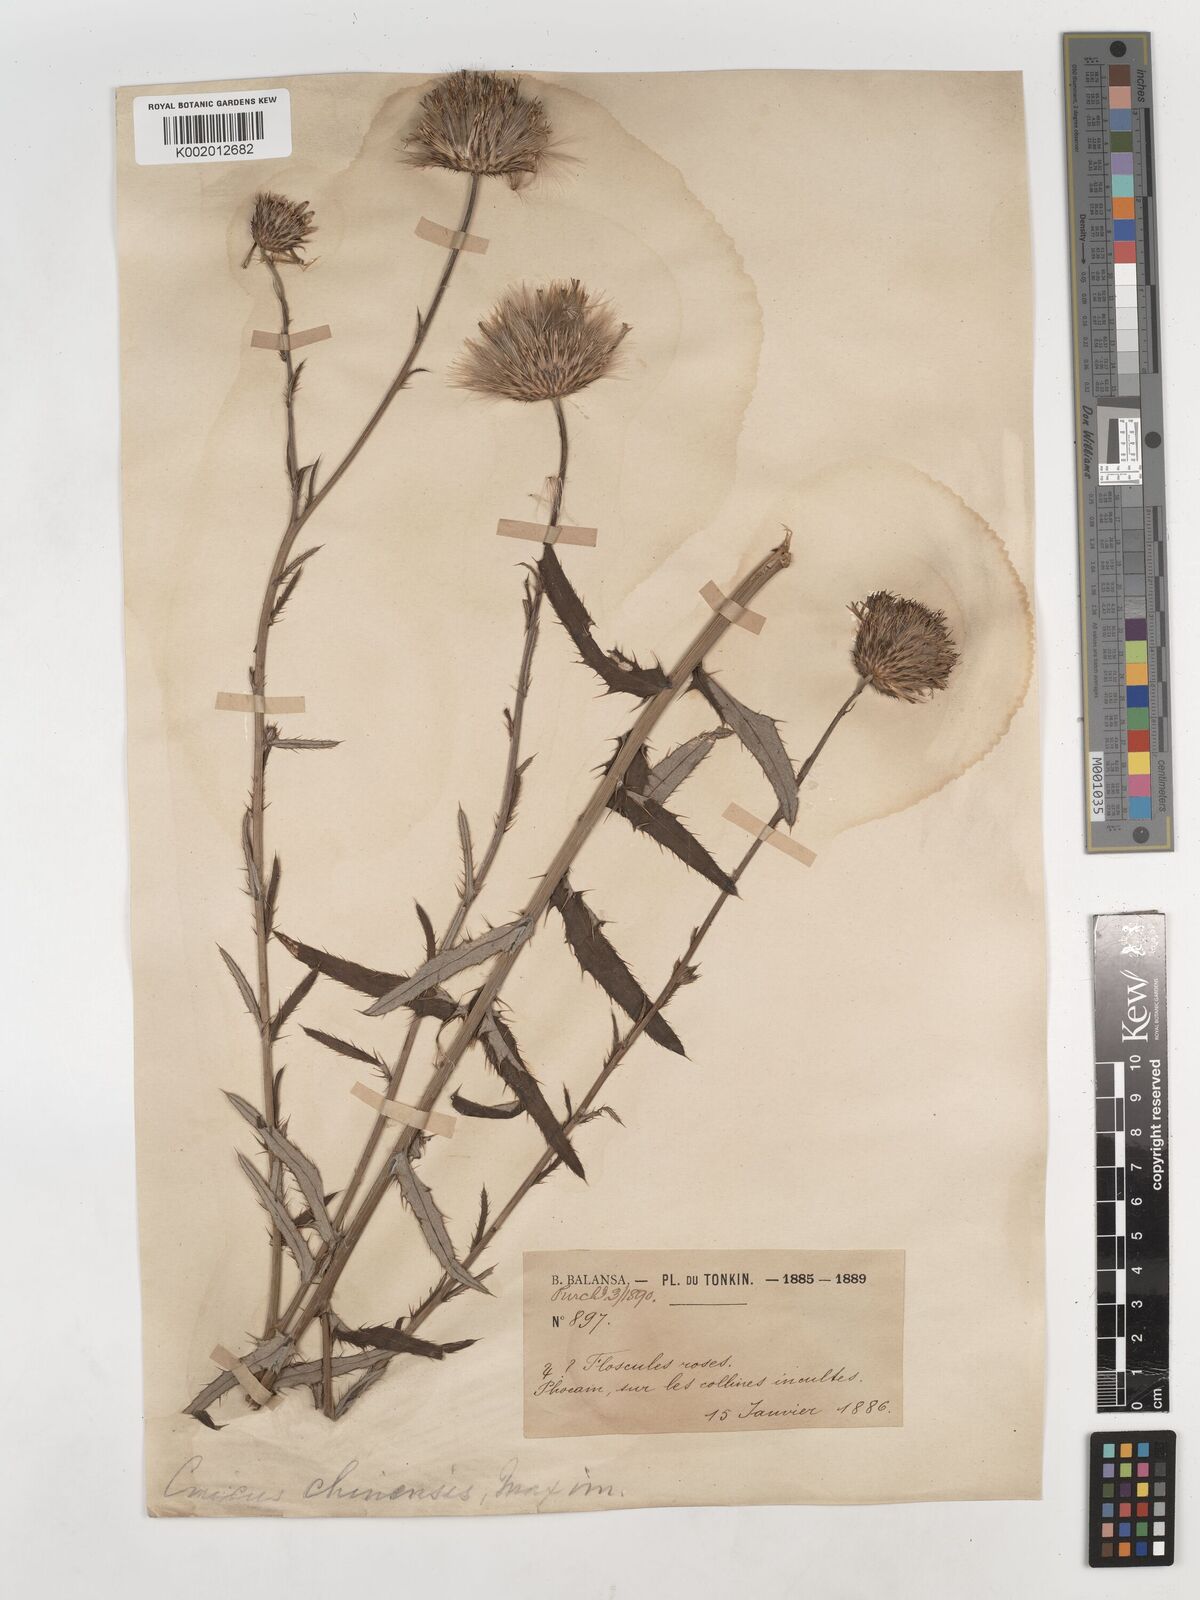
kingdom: Plantae
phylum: Tracheophyta
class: Magnoliopsida
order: Asterales
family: Asteraceae
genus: Cirsium
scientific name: Cirsium chinense
